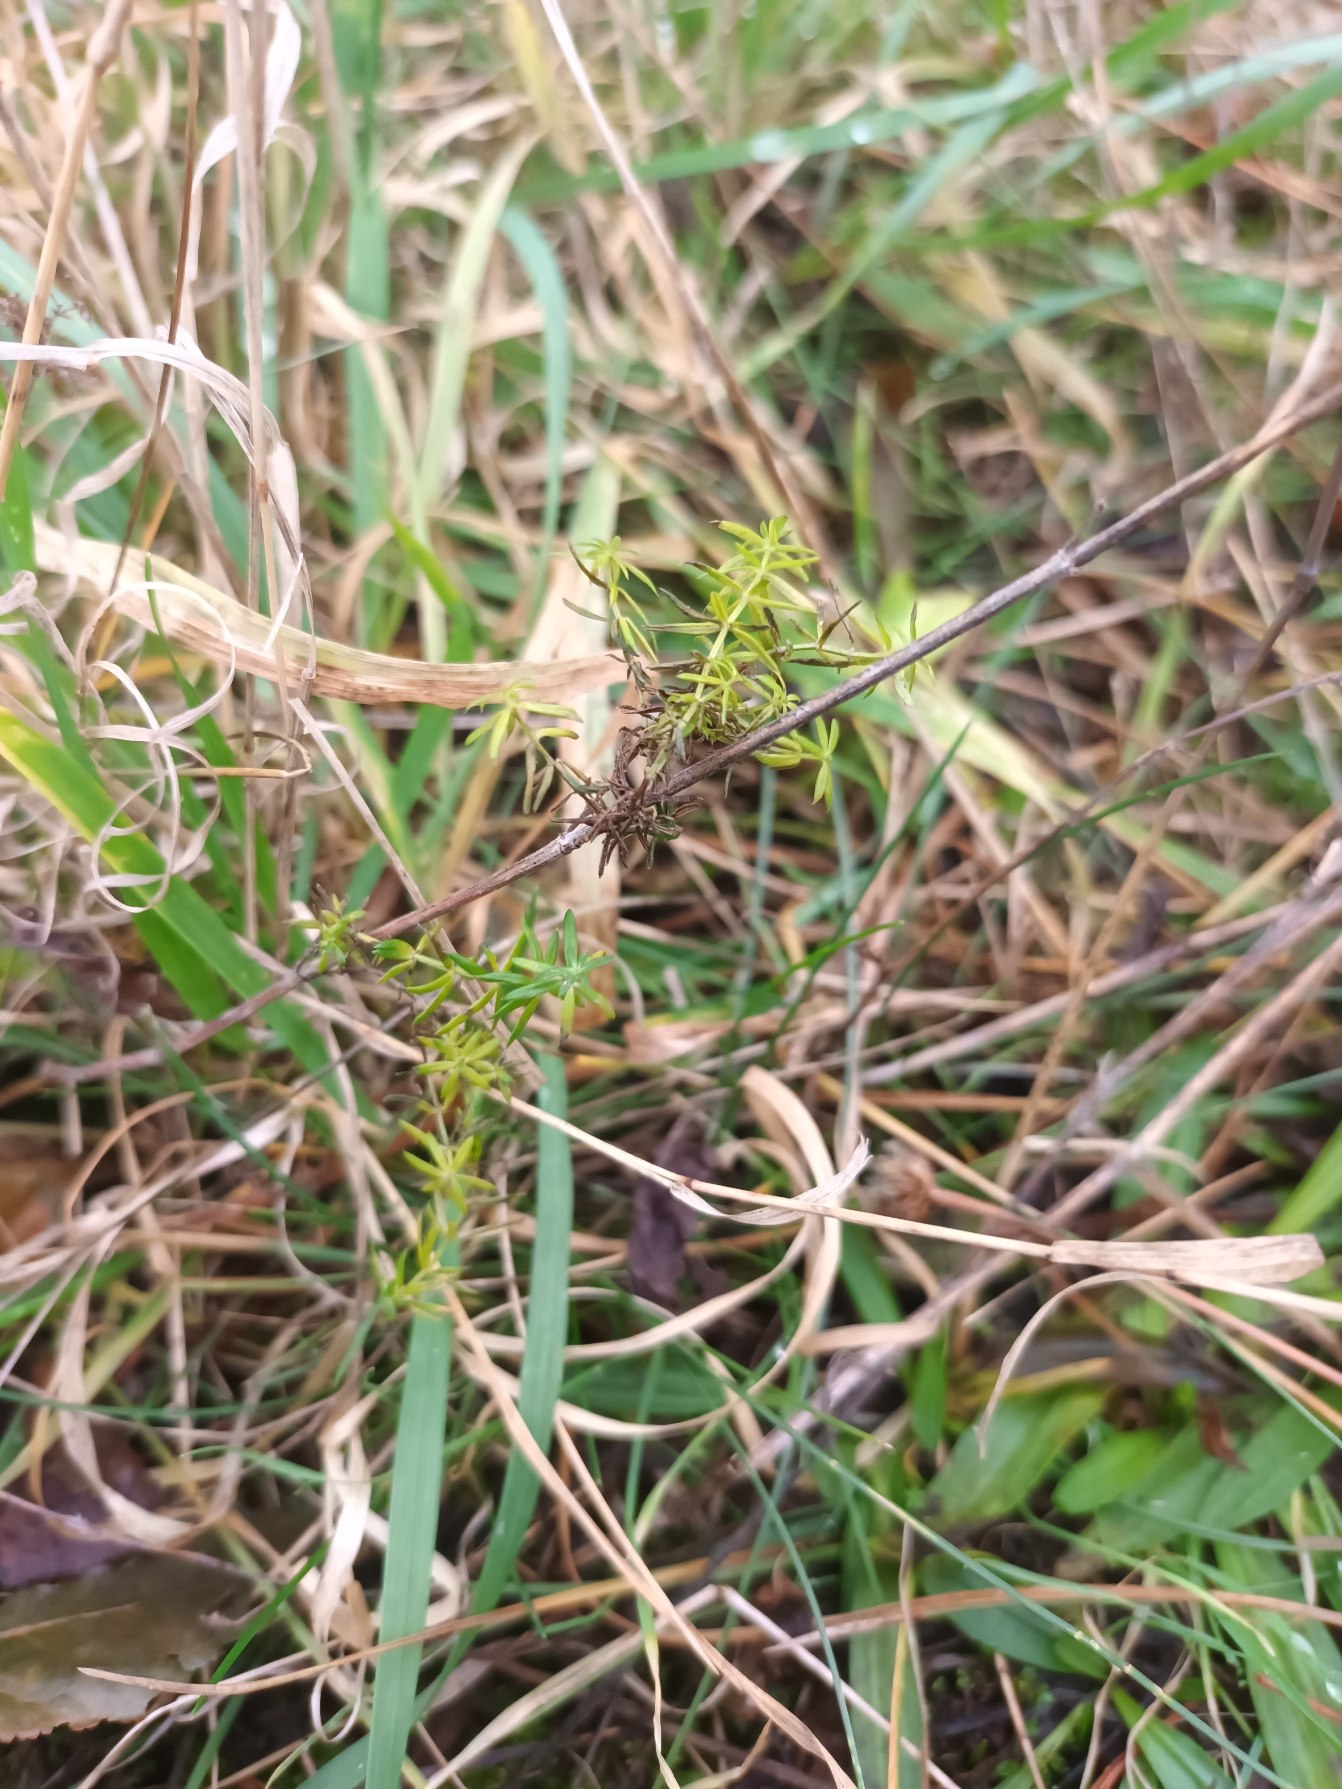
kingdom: Plantae
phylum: Tracheophyta
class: Magnoliopsida
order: Gentianales
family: Rubiaceae
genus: Galium
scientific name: Galium verum
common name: Gul snerre
